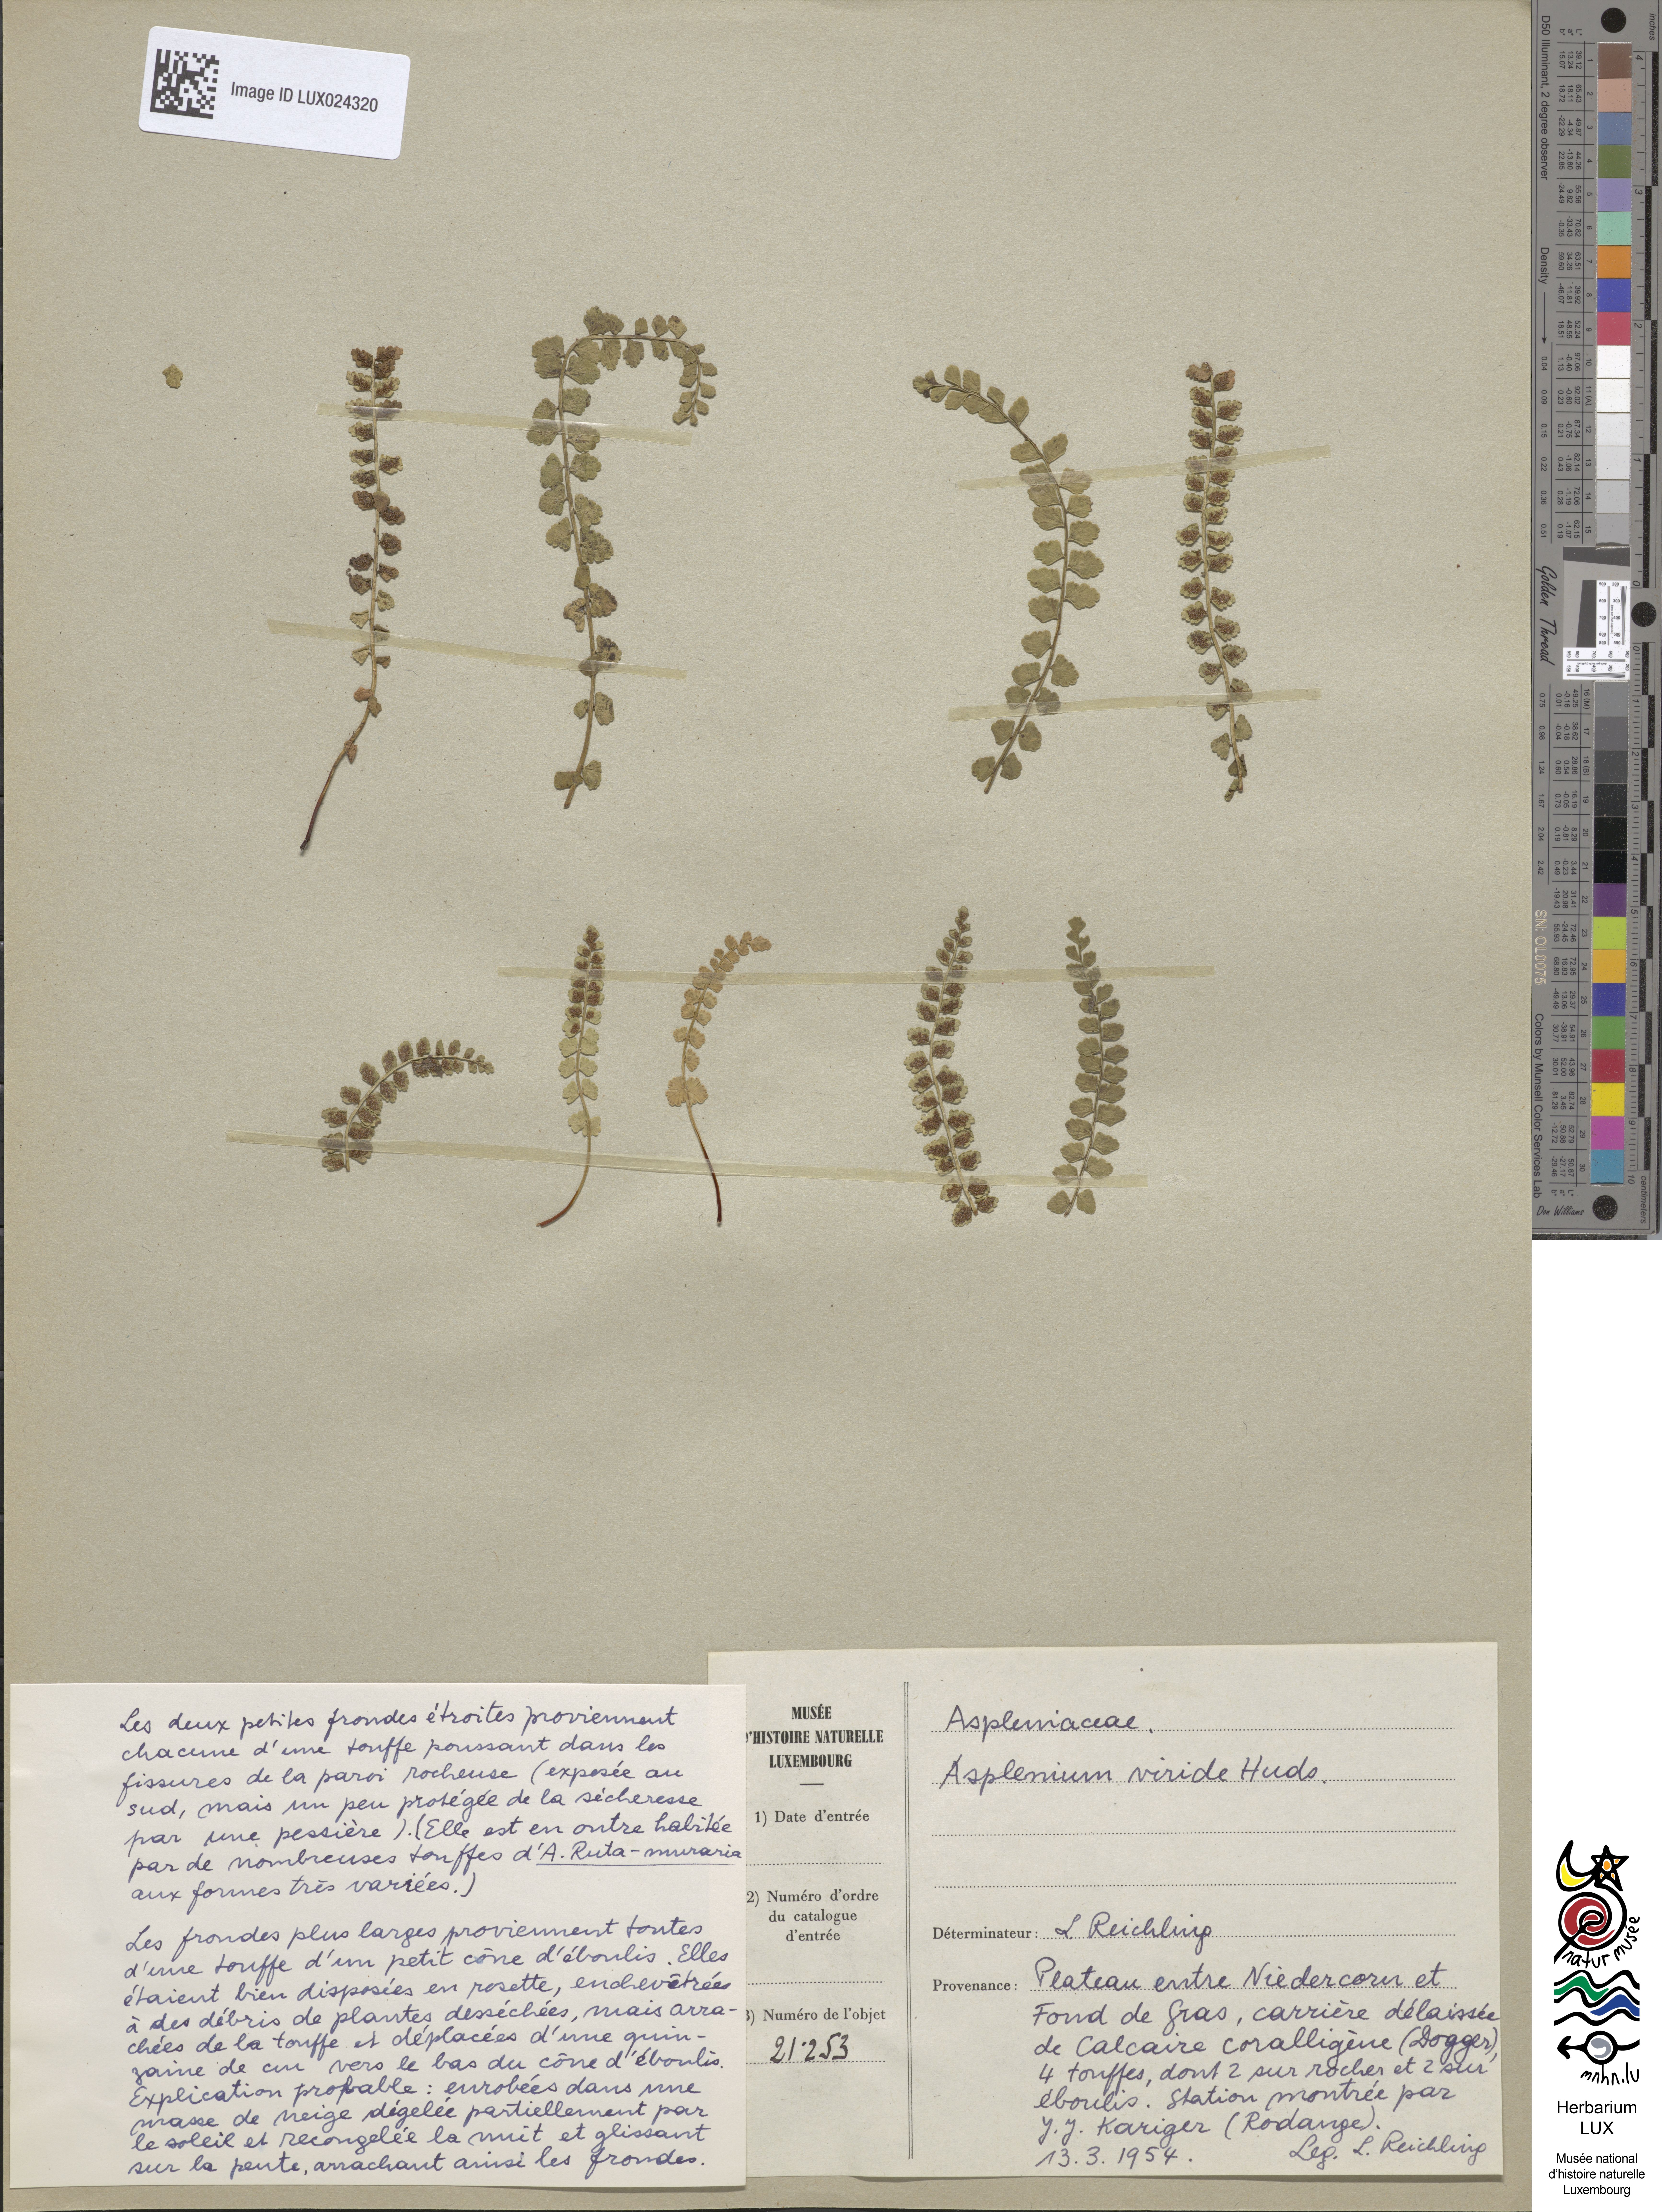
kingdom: Plantae
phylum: Tracheophyta
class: Polypodiopsida
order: Polypodiales
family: Aspleniaceae
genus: Asplenium
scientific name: Asplenium viride
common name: Green spleenwort
